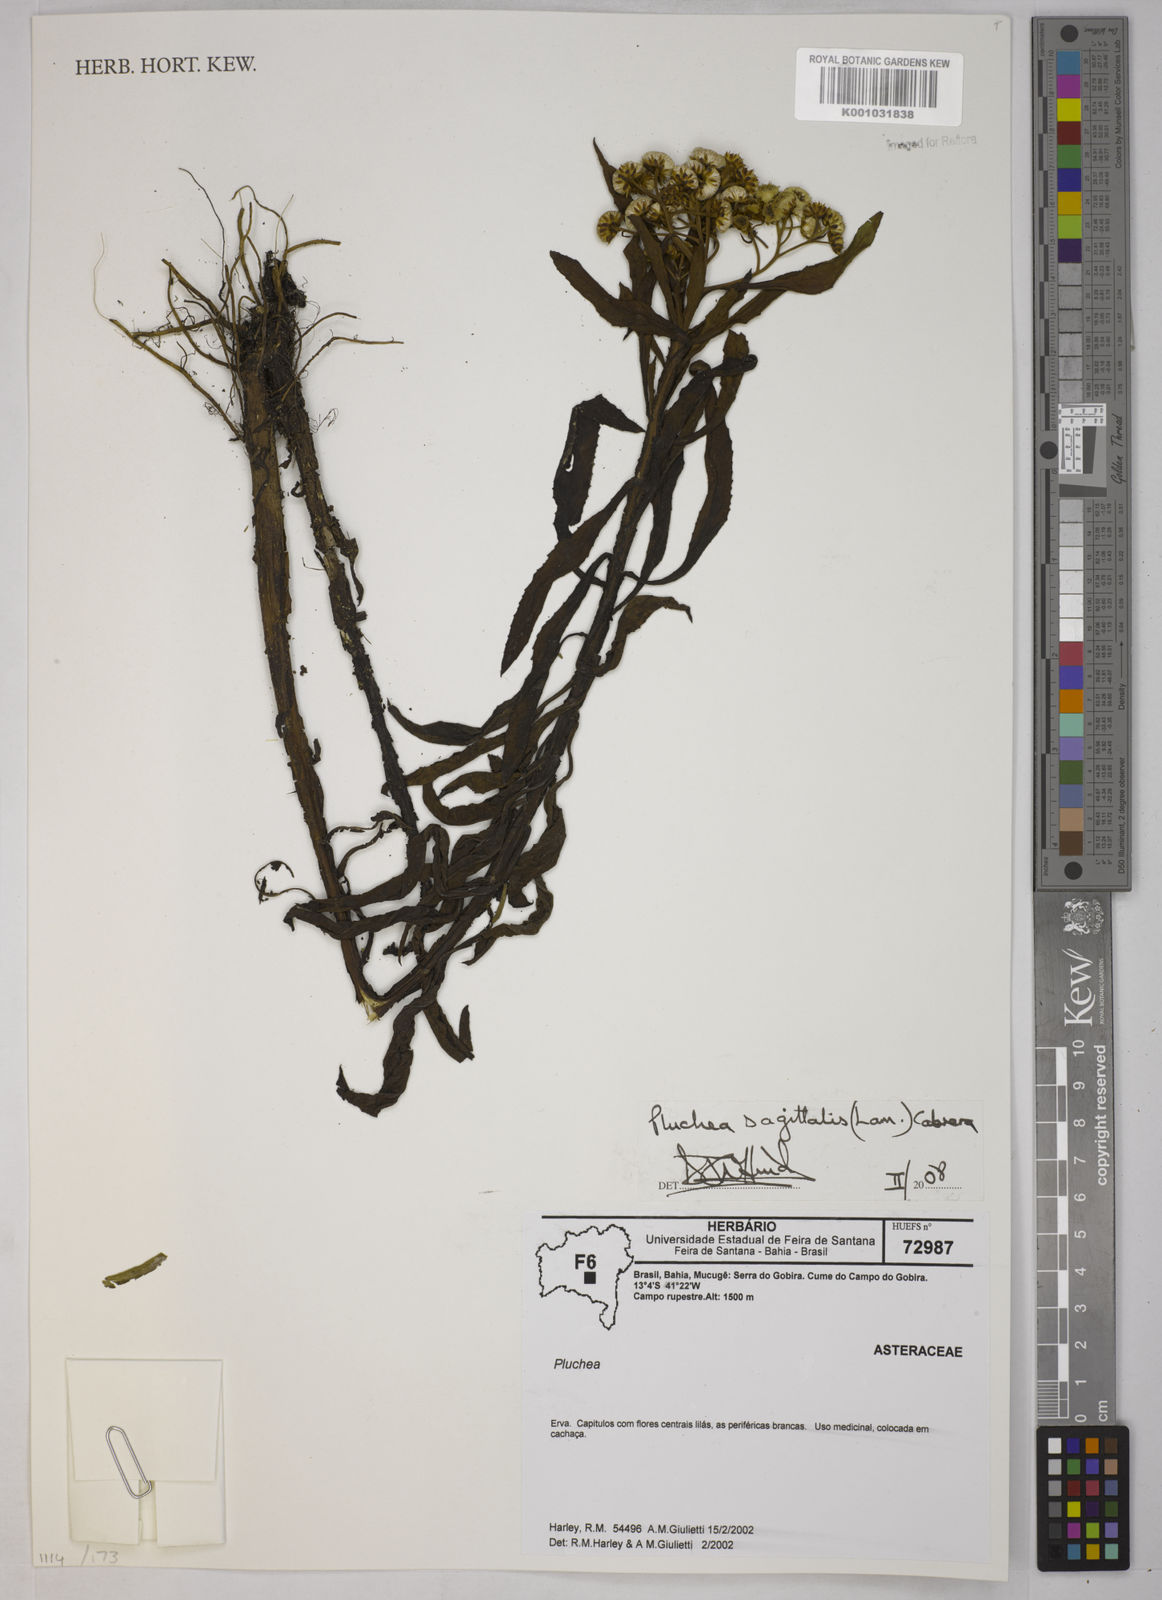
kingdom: Plantae
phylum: Tracheophyta
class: Magnoliopsida
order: Asterales
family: Asteraceae
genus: Pluchea
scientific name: Pluchea sagittalis
